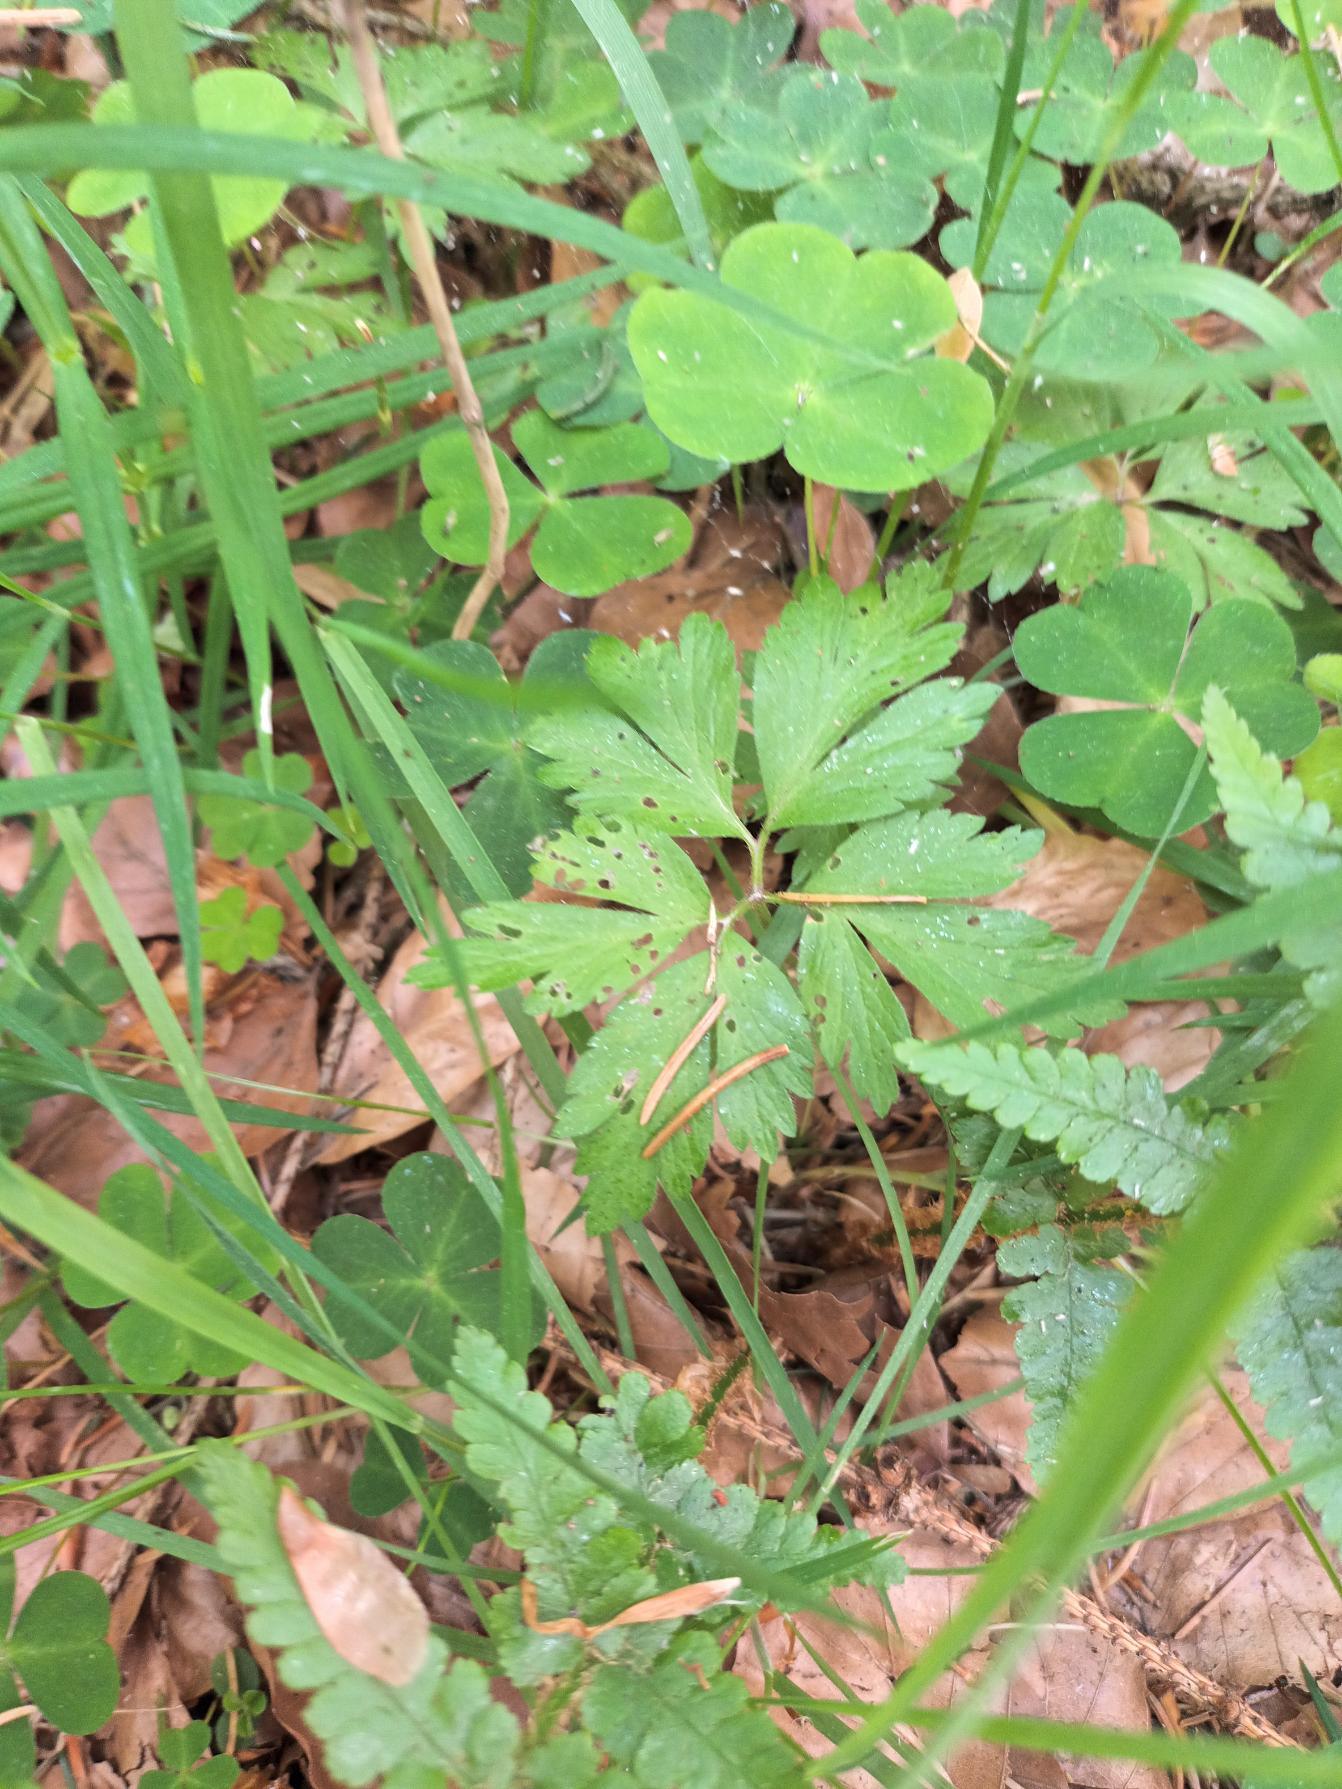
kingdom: Plantae
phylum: Tracheophyta
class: Magnoliopsida
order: Ranunculales
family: Ranunculaceae
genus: Anemone
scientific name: Anemone nemorosa
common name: Hvid anemone
